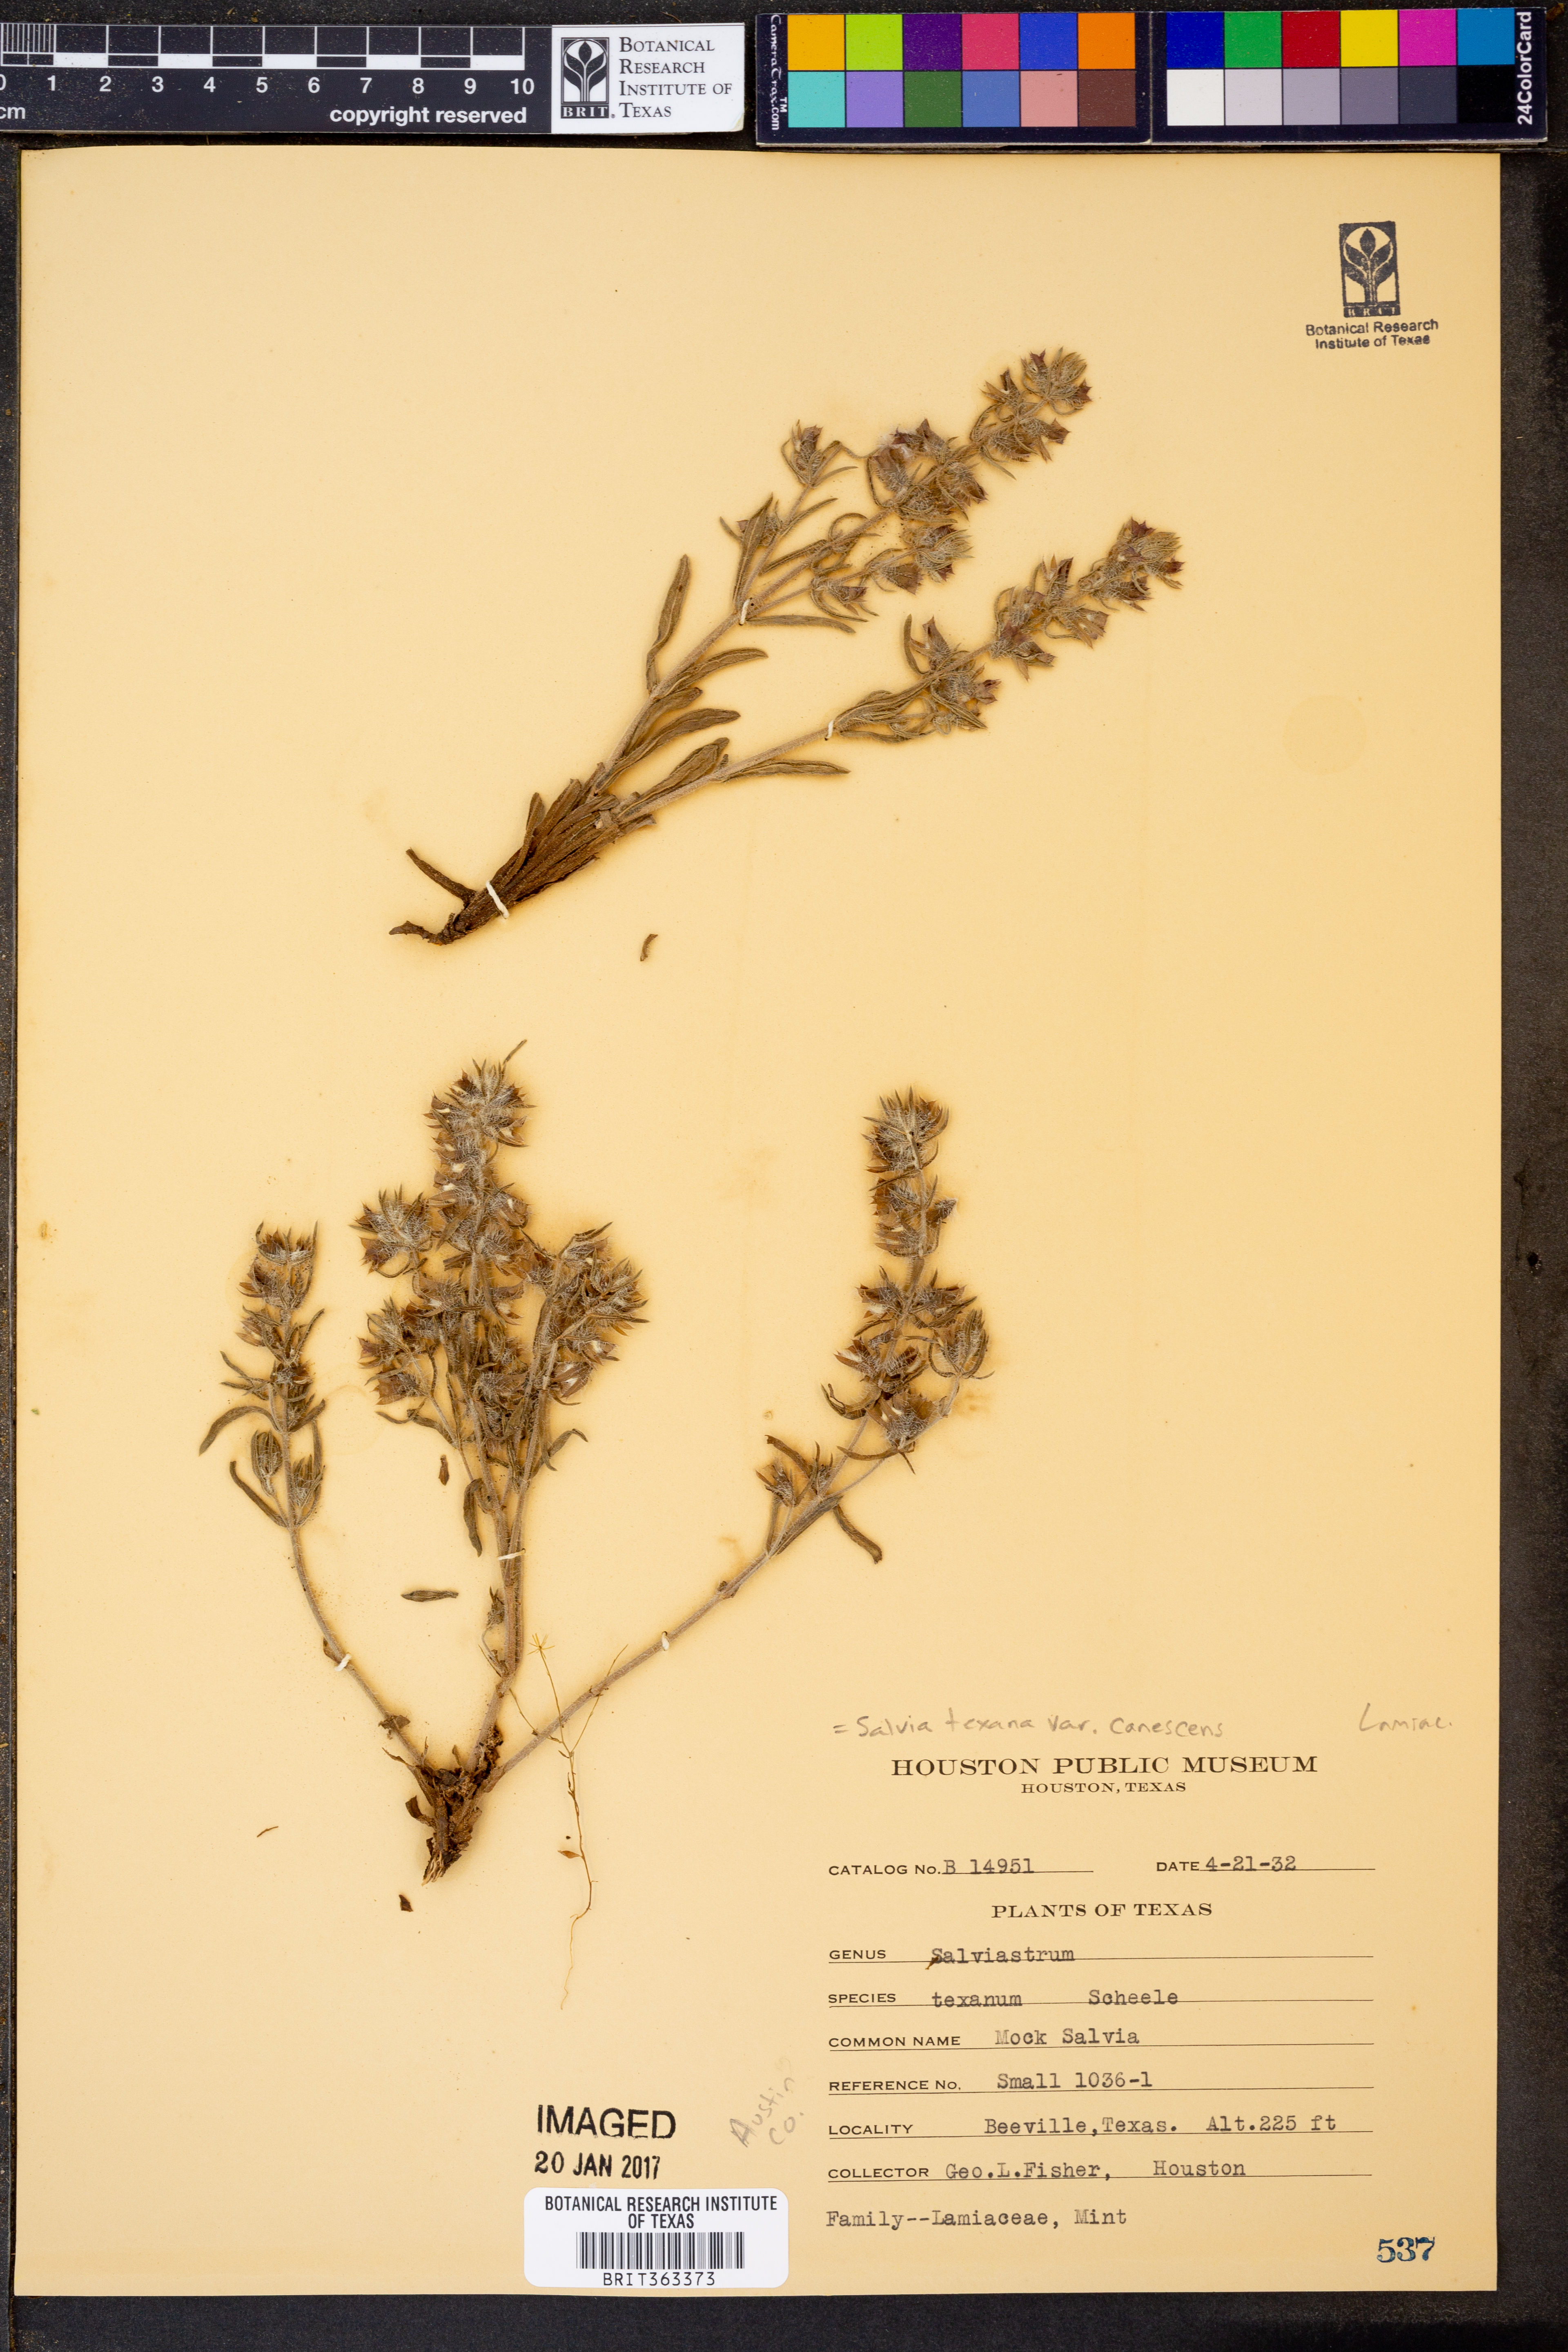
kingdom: Plantae
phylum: Tracheophyta
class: Magnoliopsida
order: Lamiales
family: Lamiaceae
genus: Salvia
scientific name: Salvia texana
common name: Texas sage
